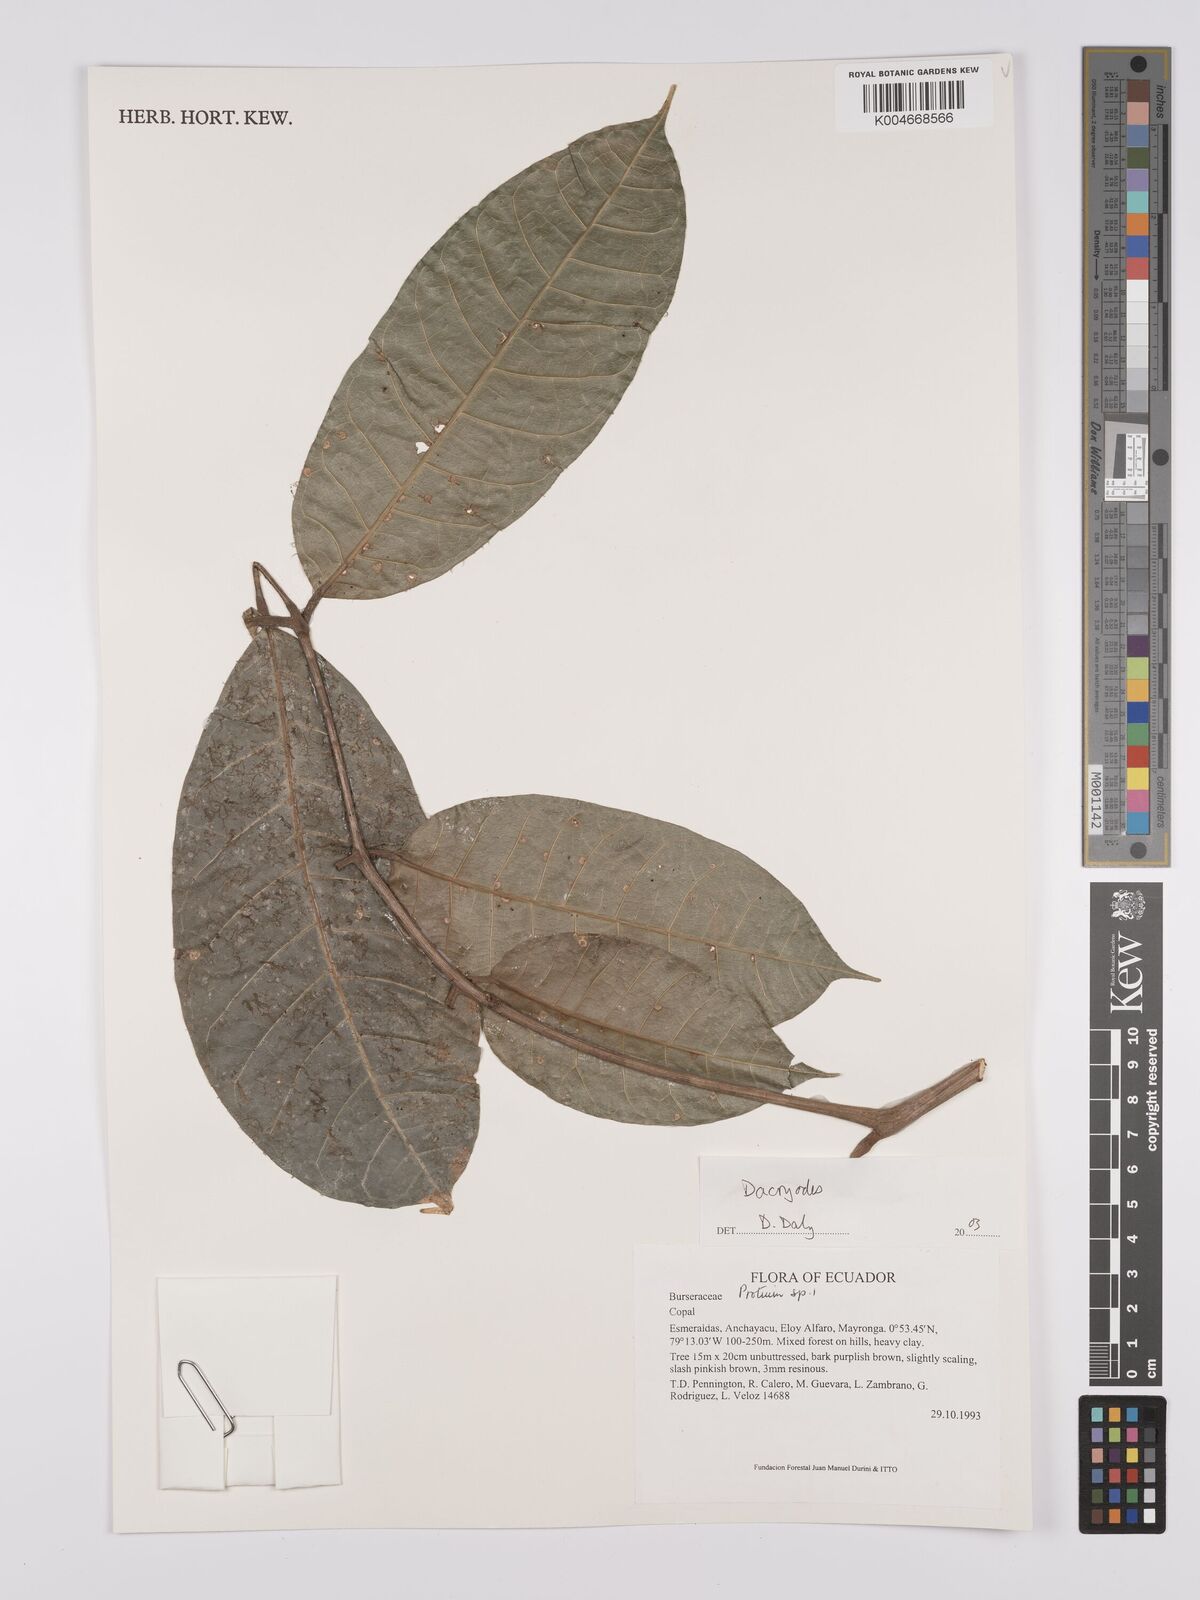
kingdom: Plantae
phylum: Tracheophyta
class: Magnoliopsida
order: Sapindales
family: Burseraceae
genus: Dacryodes
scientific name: Dacryodes
